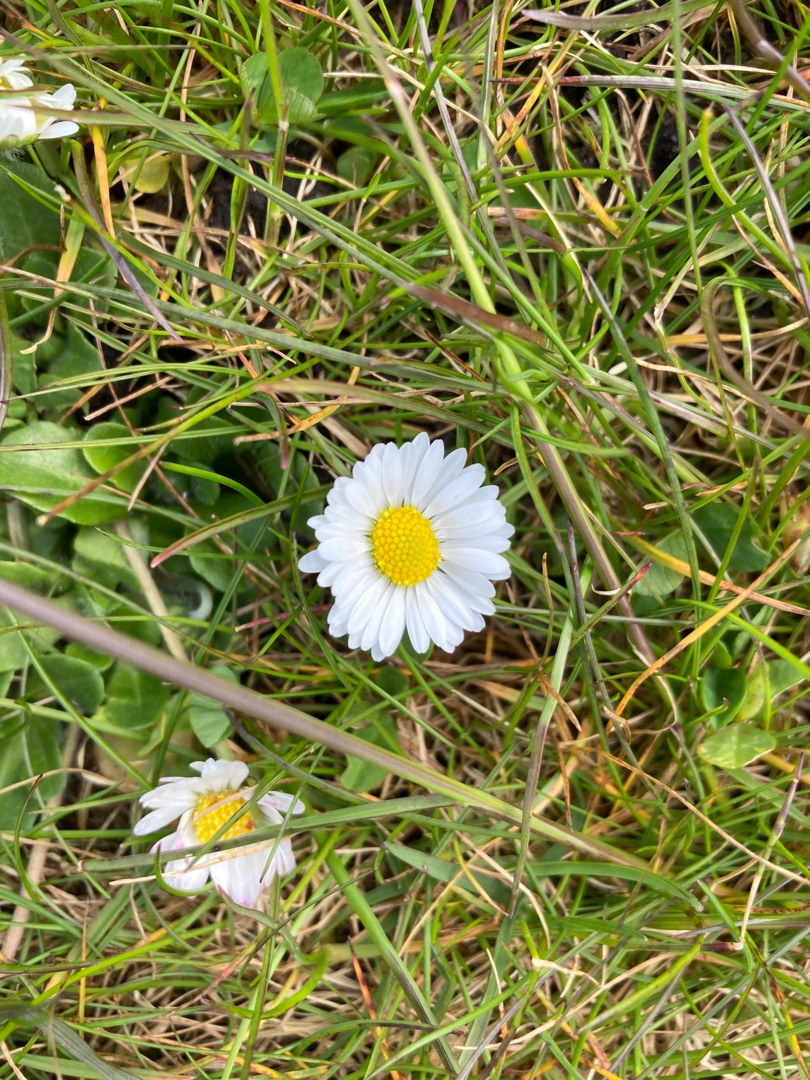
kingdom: Plantae
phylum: Tracheophyta
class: Magnoliopsida
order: Asterales
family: Asteraceae
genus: Bellis
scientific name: Bellis perennis
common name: Tusindfryd
